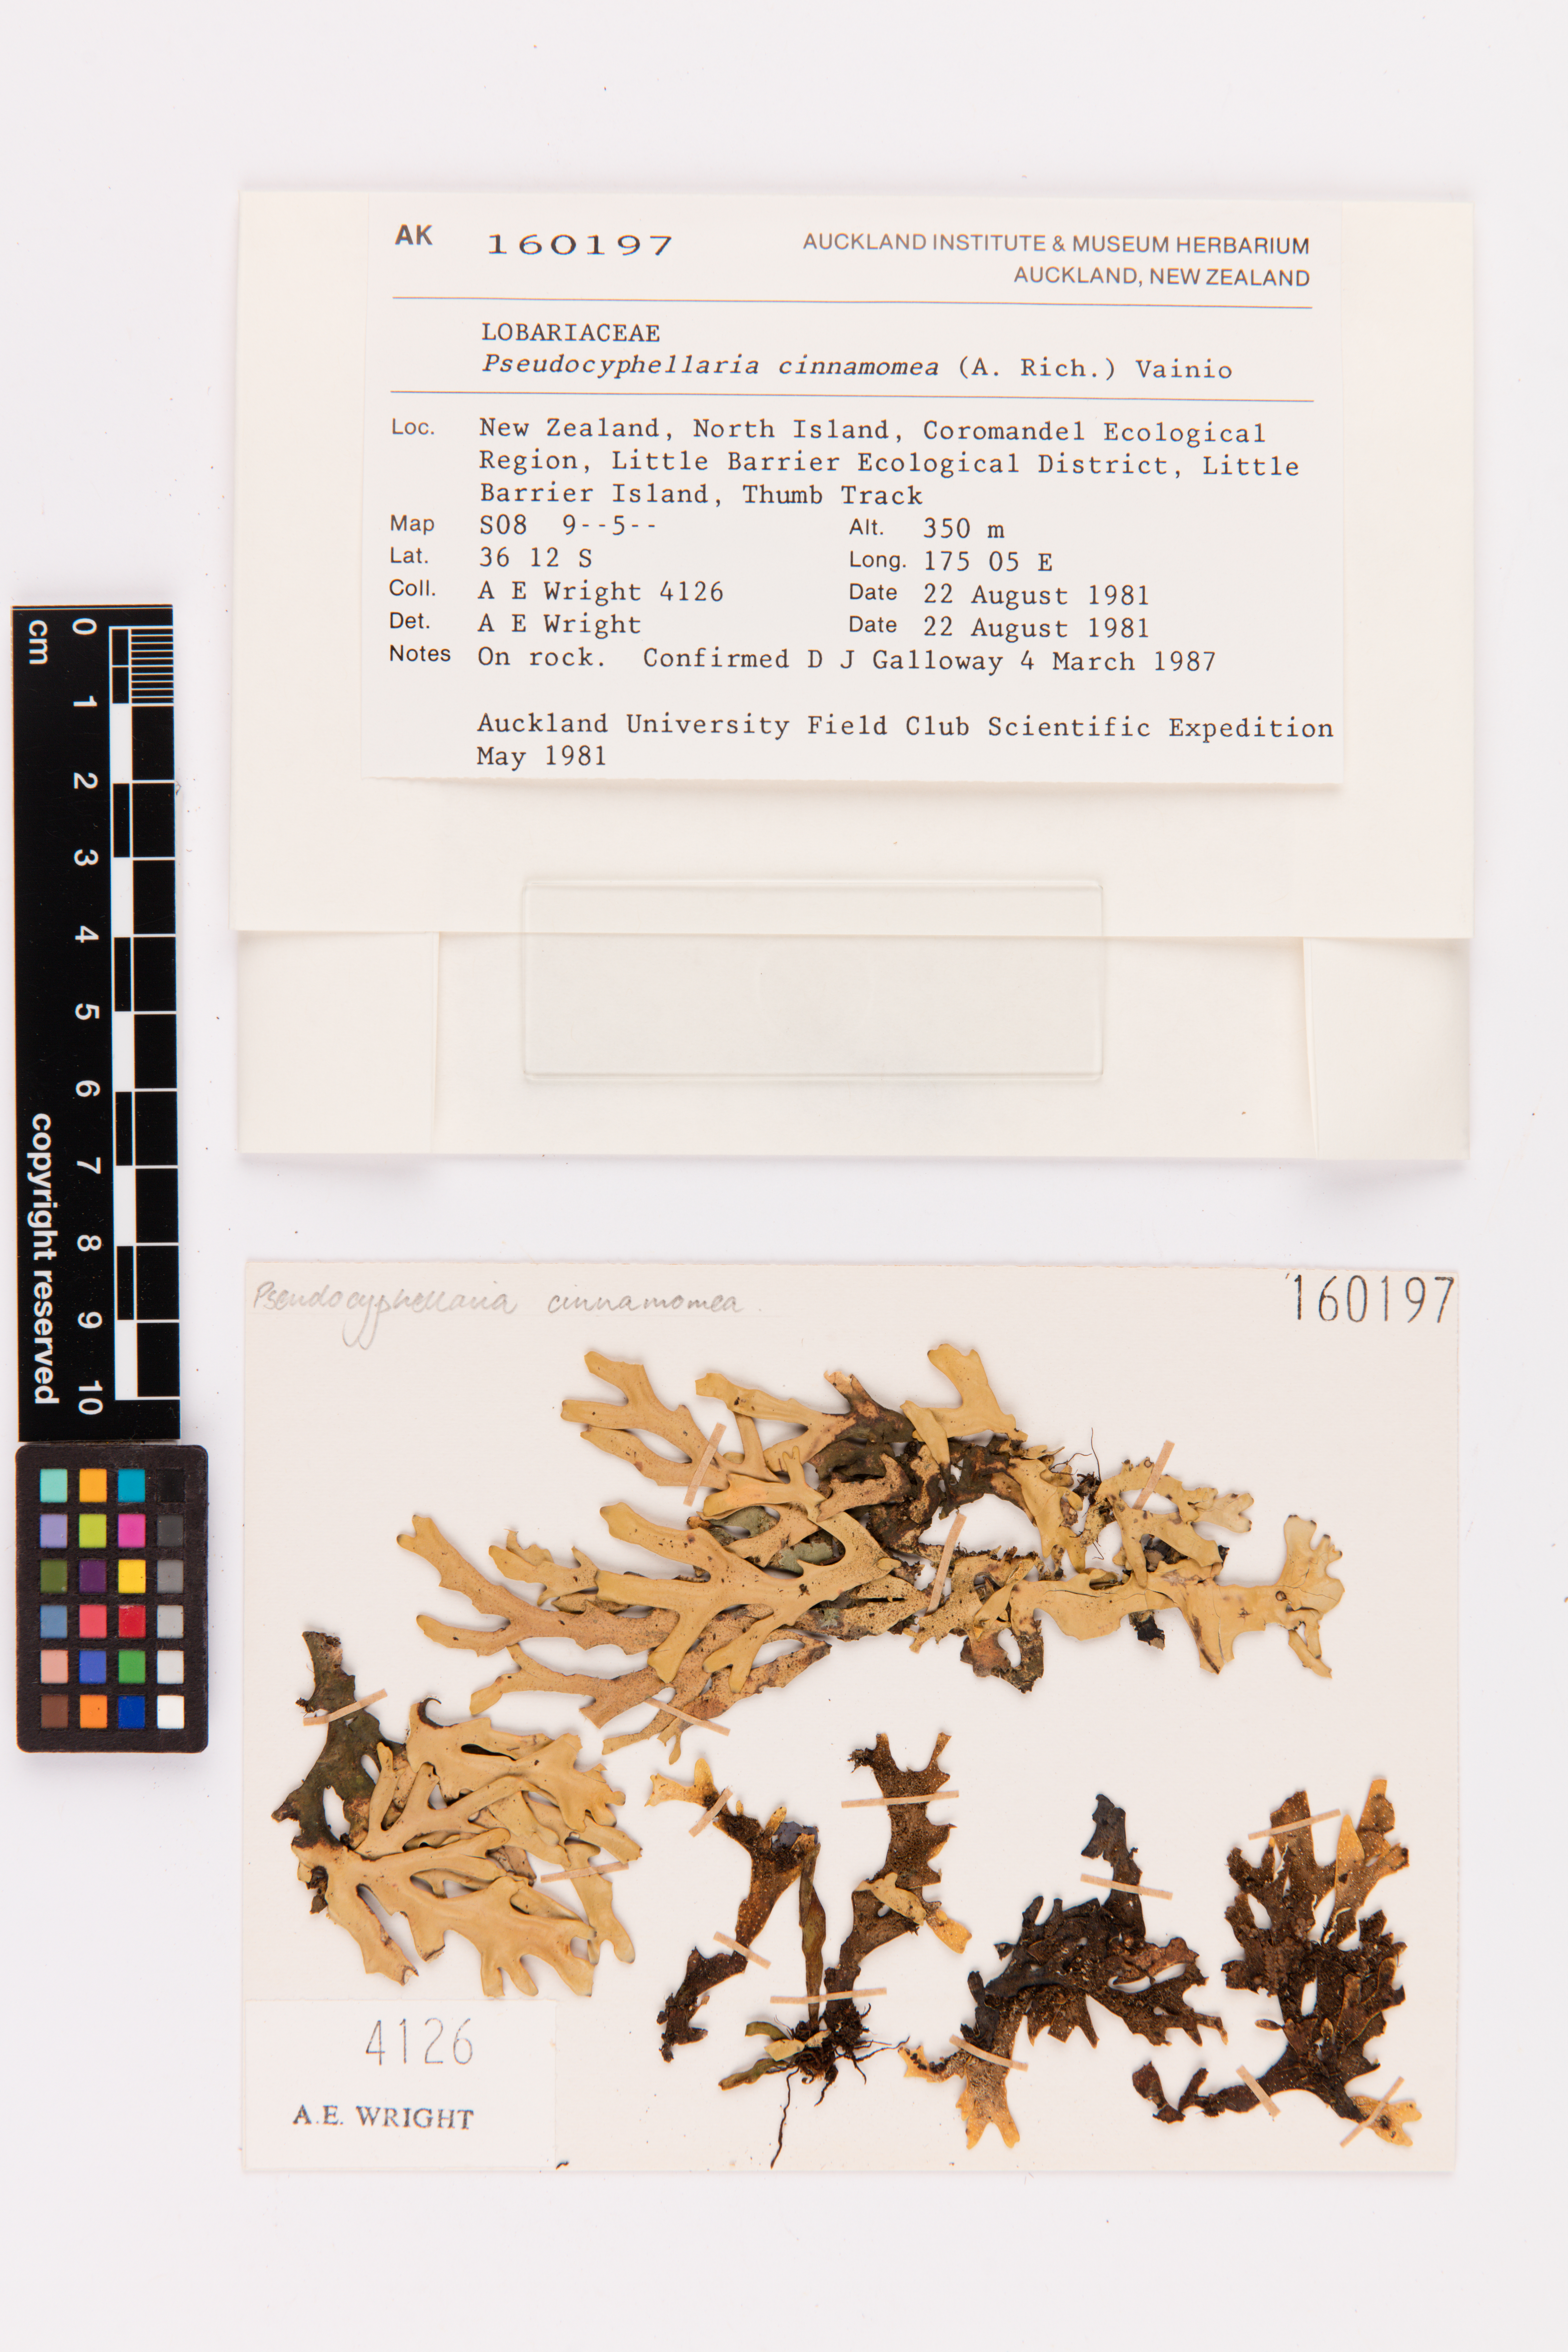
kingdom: Fungi
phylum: Ascomycota
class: Lecanoromycetes
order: Peltigerales
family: Lobariaceae
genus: Pseudocyphellaria
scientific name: Pseudocyphellaria cinnamomea
